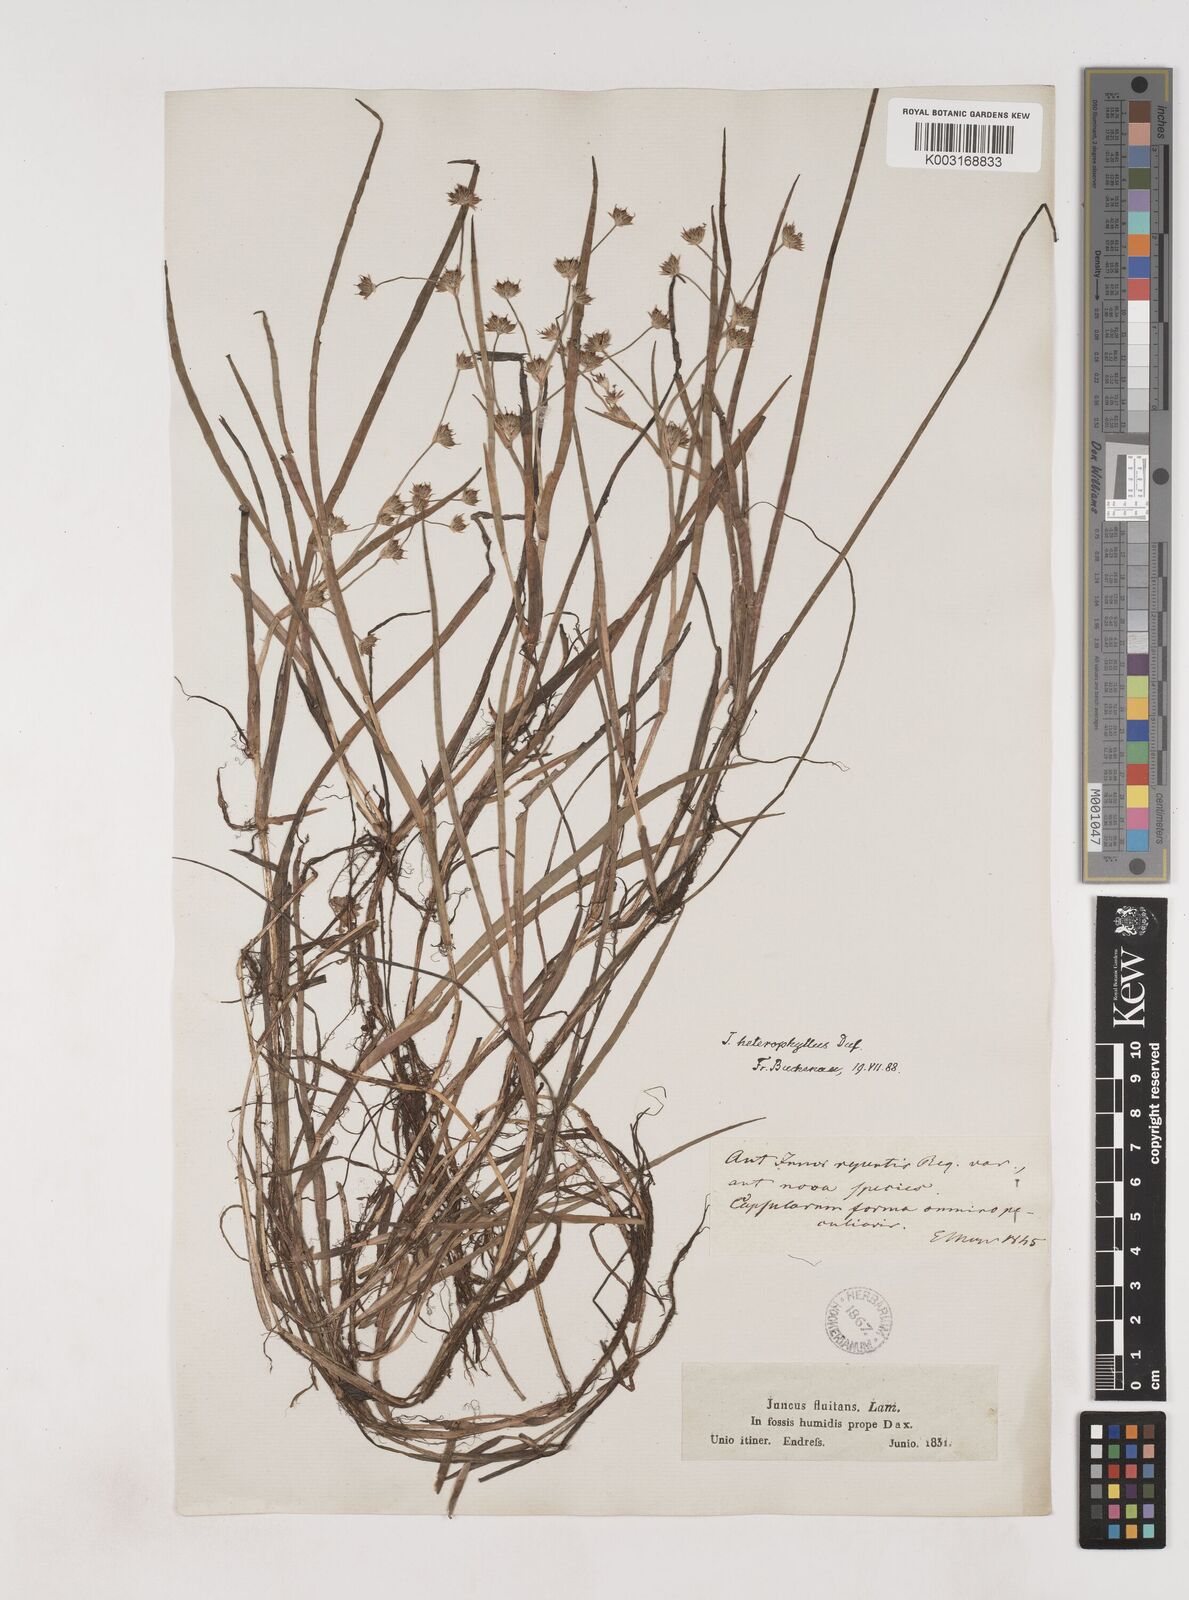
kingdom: Plantae
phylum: Tracheophyta
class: Liliopsida
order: Poales
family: Juncaceae
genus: Juncus
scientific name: Juncus heterophyllus
